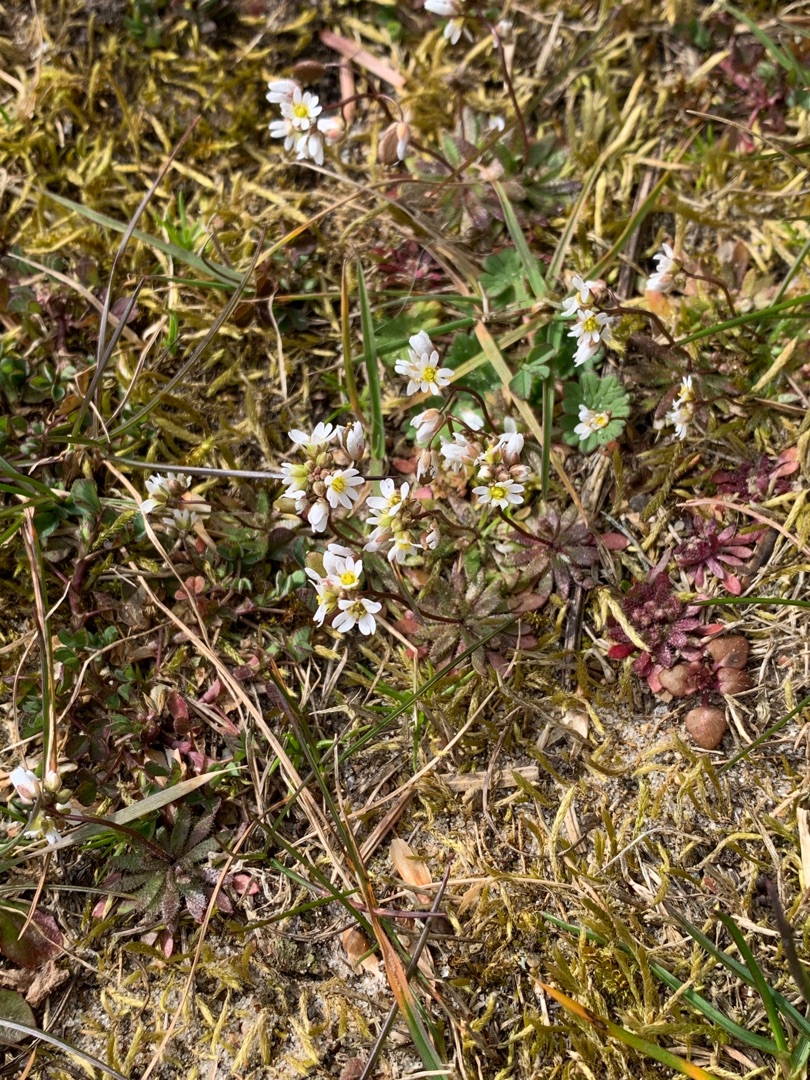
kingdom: Plantae
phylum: Tracheophyta
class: Magnoliopsida
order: Brassicales
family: Brassicaceae
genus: Draba
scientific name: Draba verna
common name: Vår-gæslingeblomst
